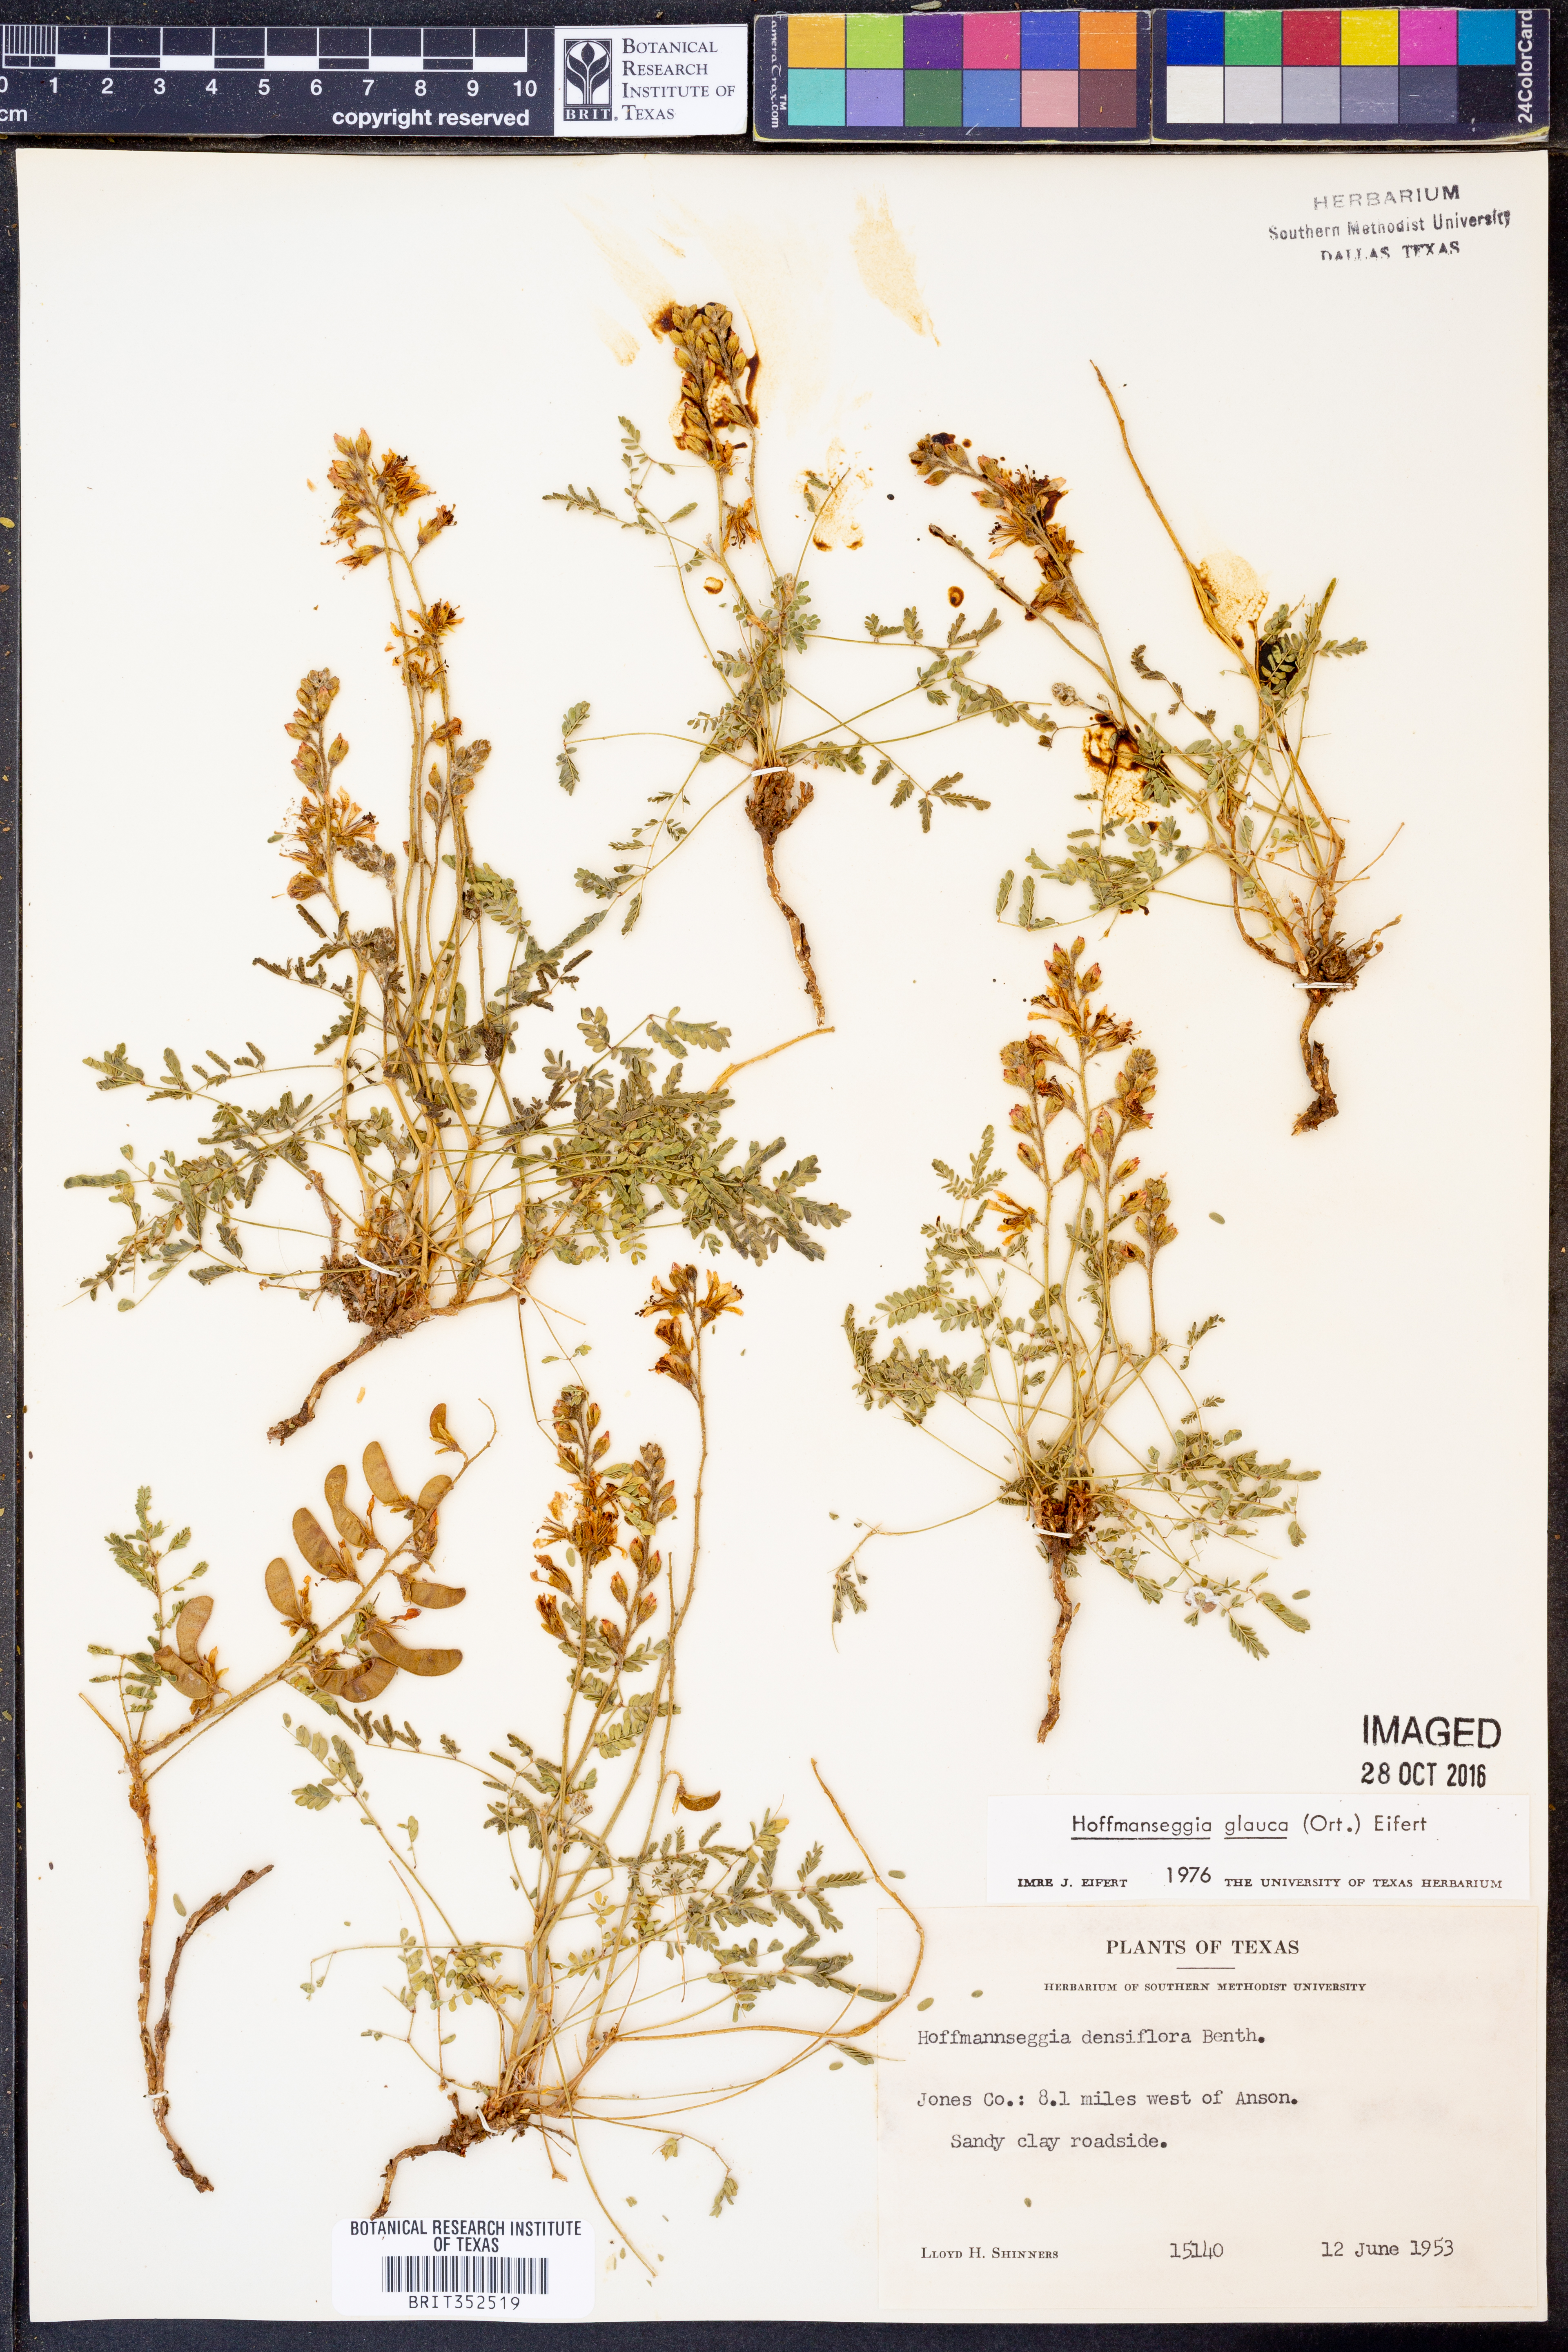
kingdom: Plantae
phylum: Tracheophyta
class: Magnoliopsida
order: Fabales
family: Fabaceae
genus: Hoffmannseggia
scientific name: Hoffmannseggia glauca
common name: Pignut
